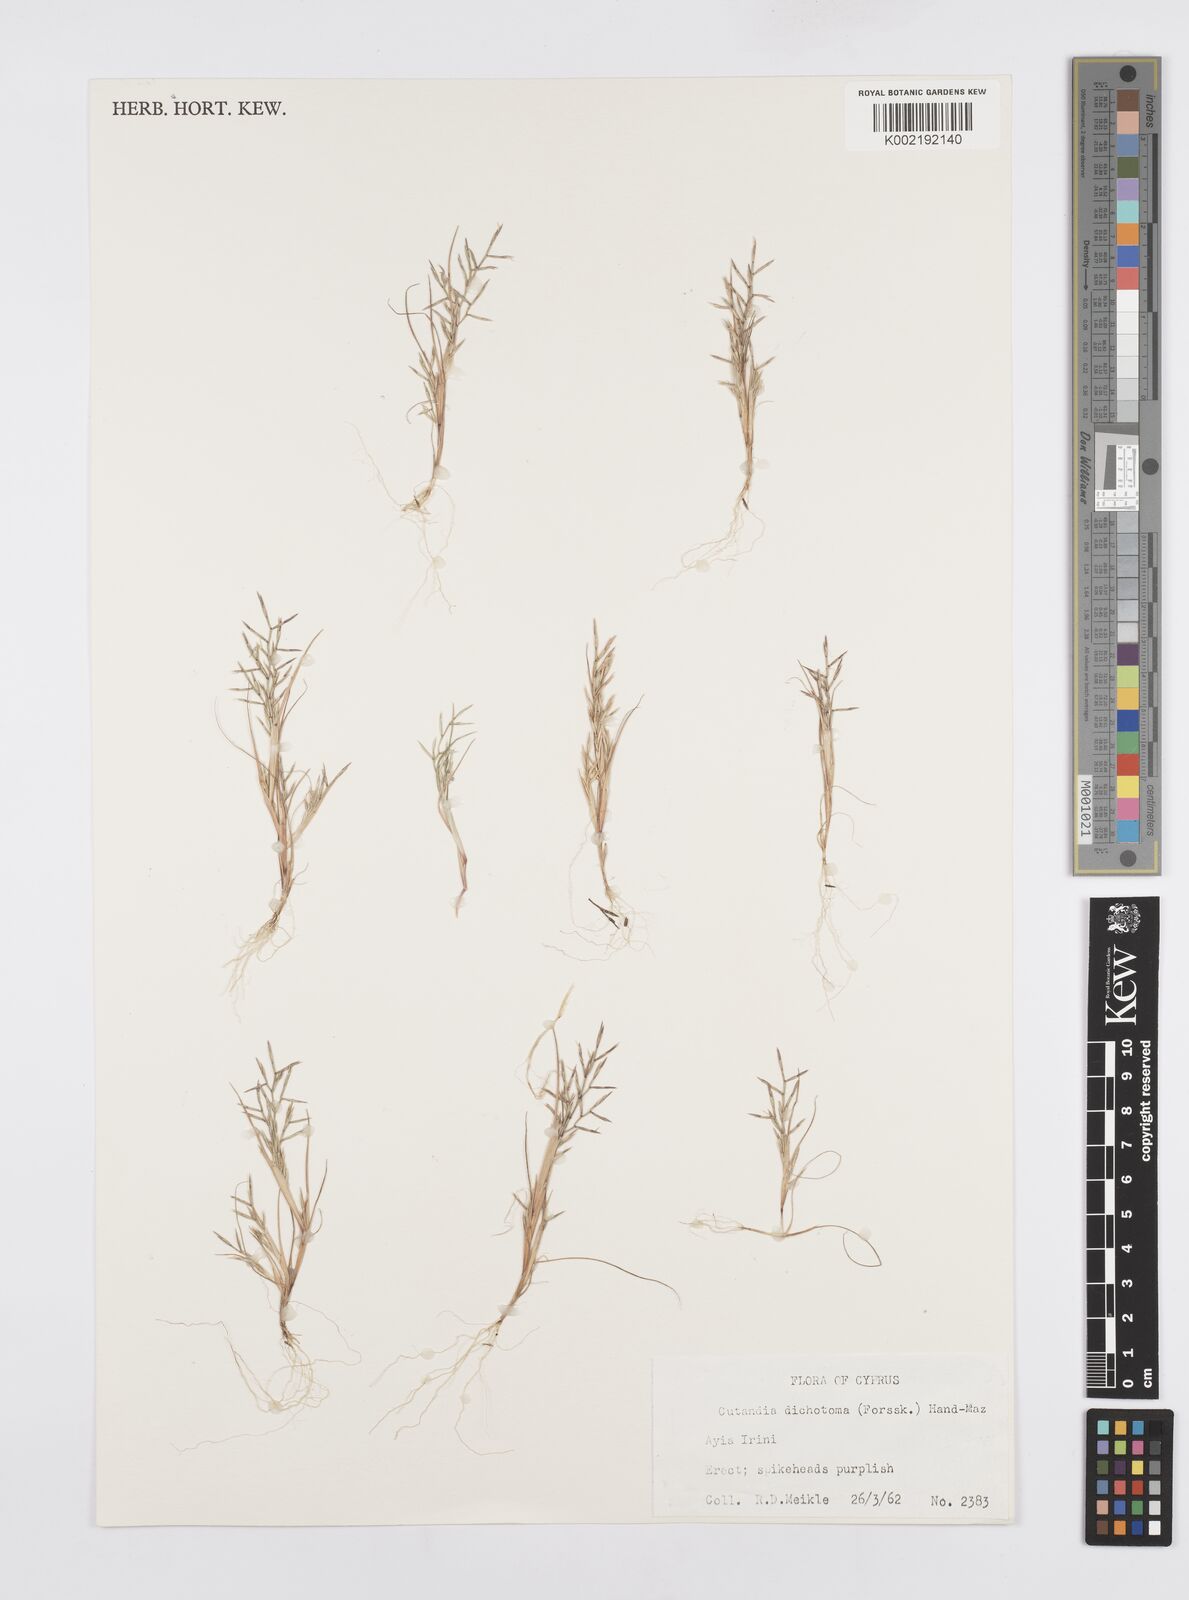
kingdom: Plantae
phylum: Tracheophyta
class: Liliopsida
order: Poales
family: Poaceae
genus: Cutandia
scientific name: Cutandia dichotoma
